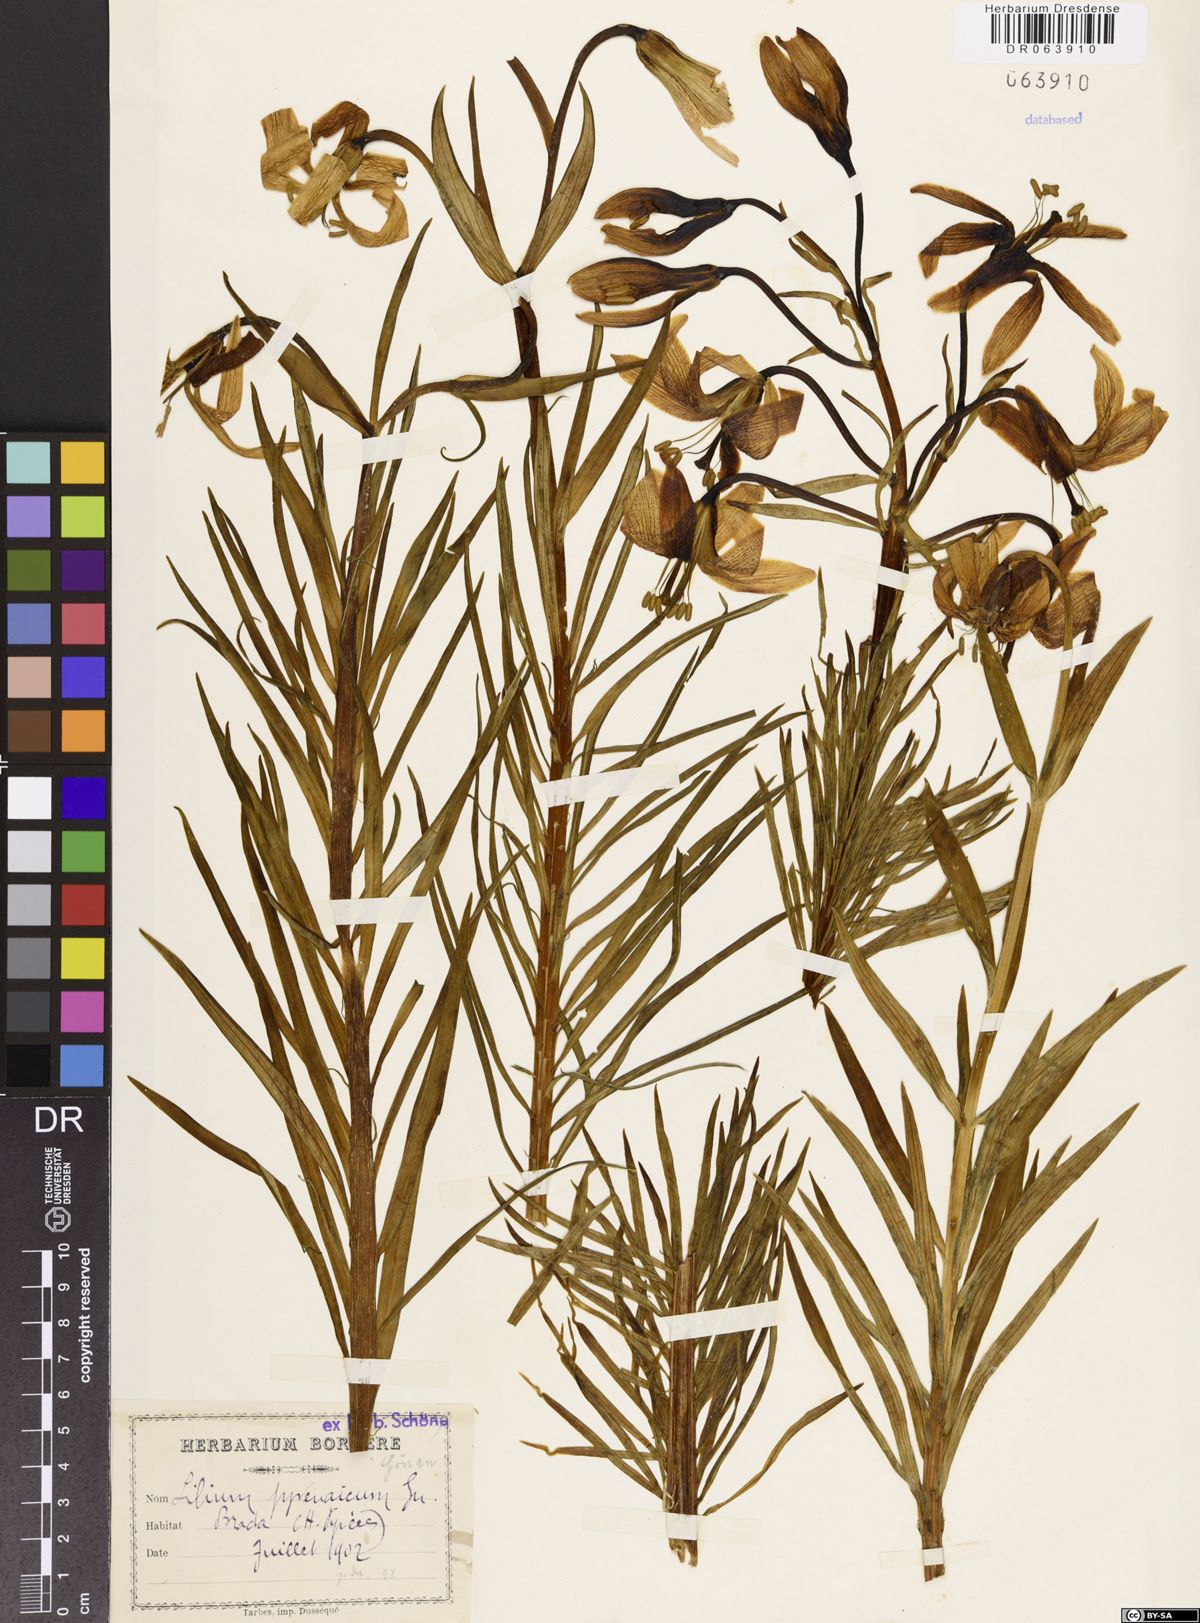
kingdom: Plantae
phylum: Tracheophyta
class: Liliopsida
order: Liliales
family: Liliaceae
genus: Lilium
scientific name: Lilium pyrenaicum
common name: Pyrenean lily
